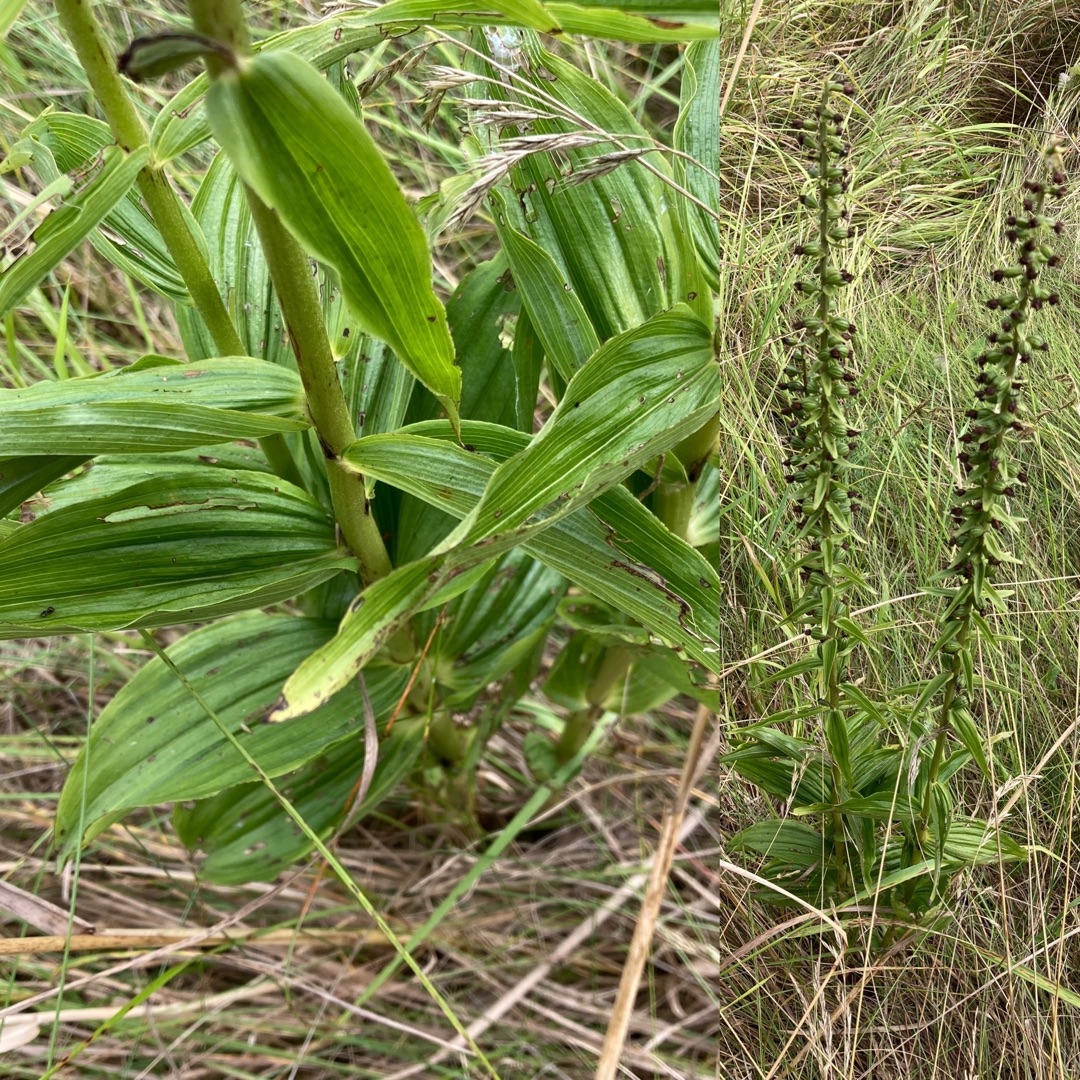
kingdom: Plantae
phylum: Tracheophyta
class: Liliopsida
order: Asparagales
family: Orchidaceae
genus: Epipactis
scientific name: Epipactis helleborine
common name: Skov-hullæbe
